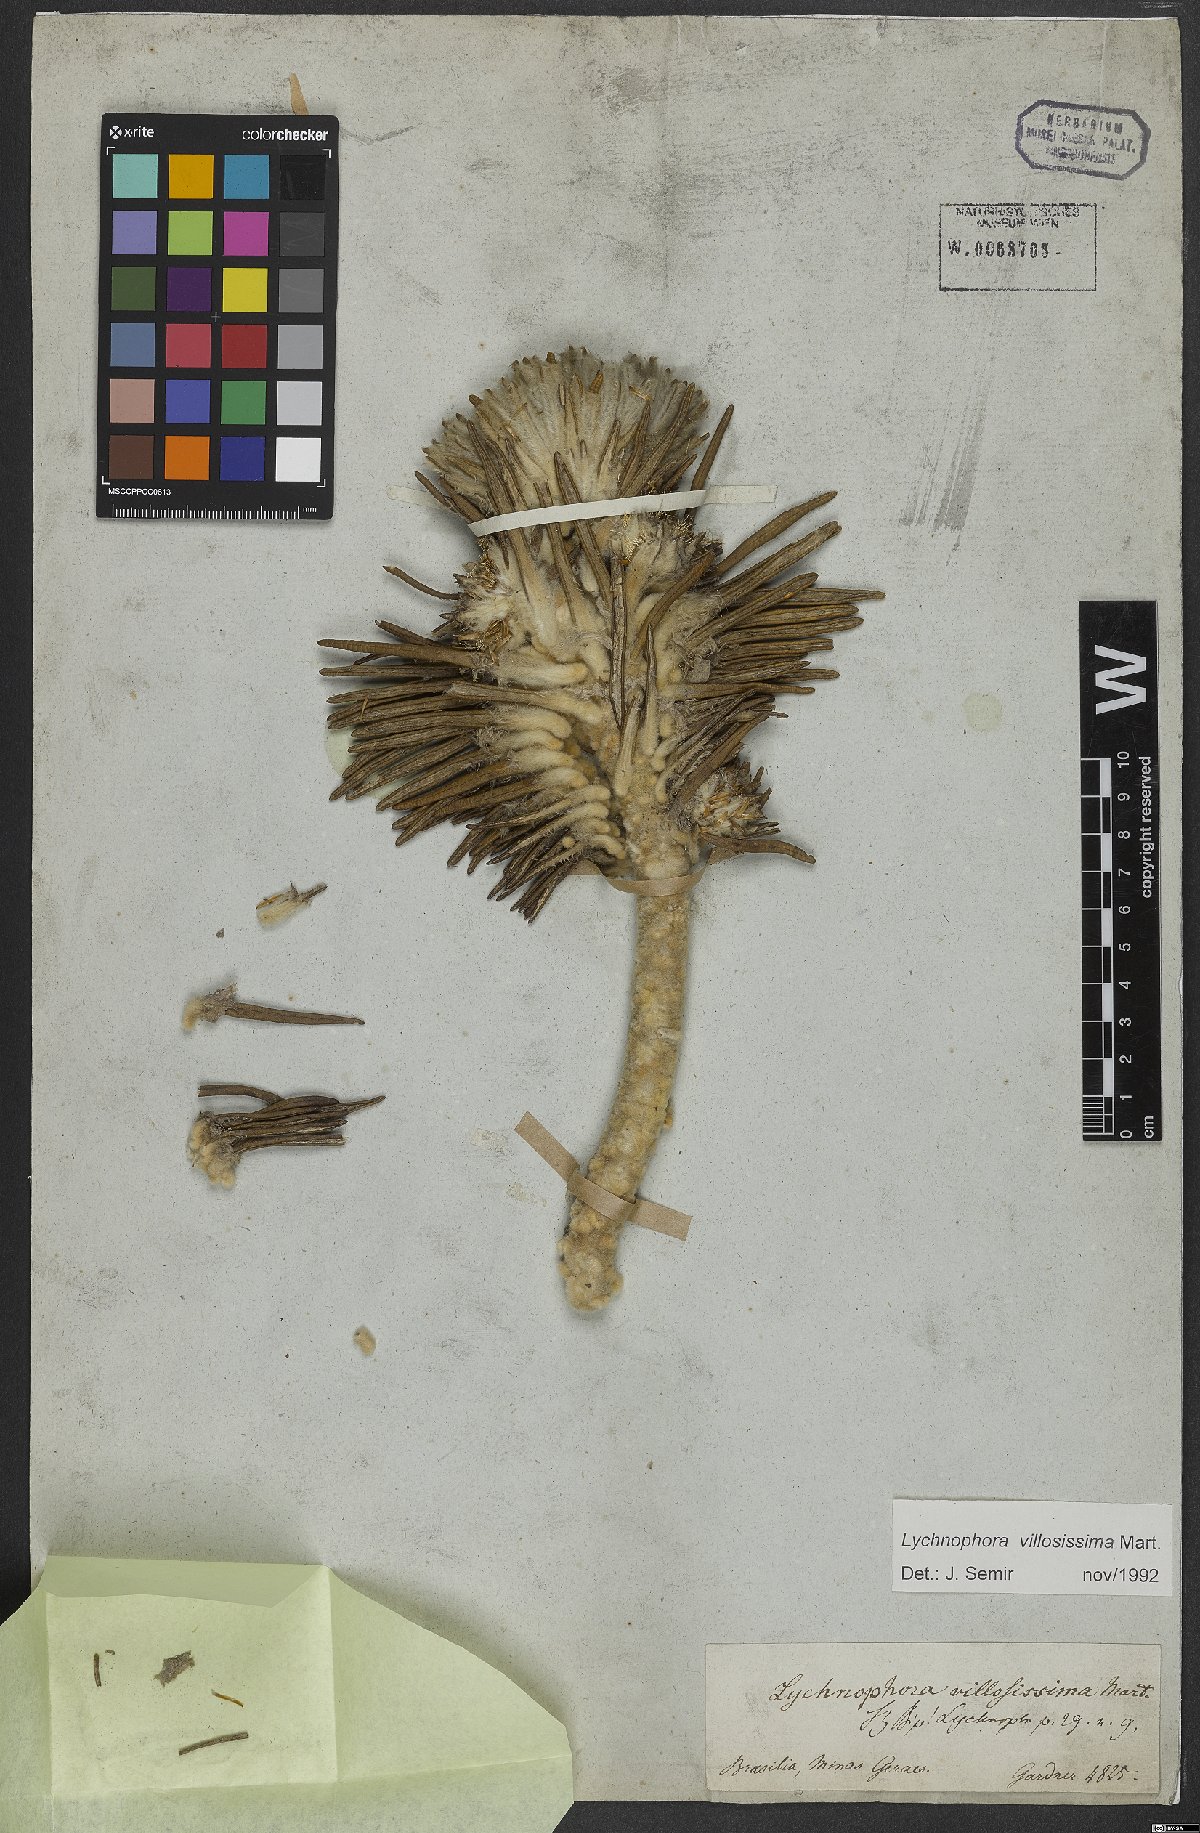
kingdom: Plantae
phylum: Tracheophyta
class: Magnoliopsida
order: Asterales
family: Asteraceae
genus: Lychnophora
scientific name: Lychnophora villosissima
